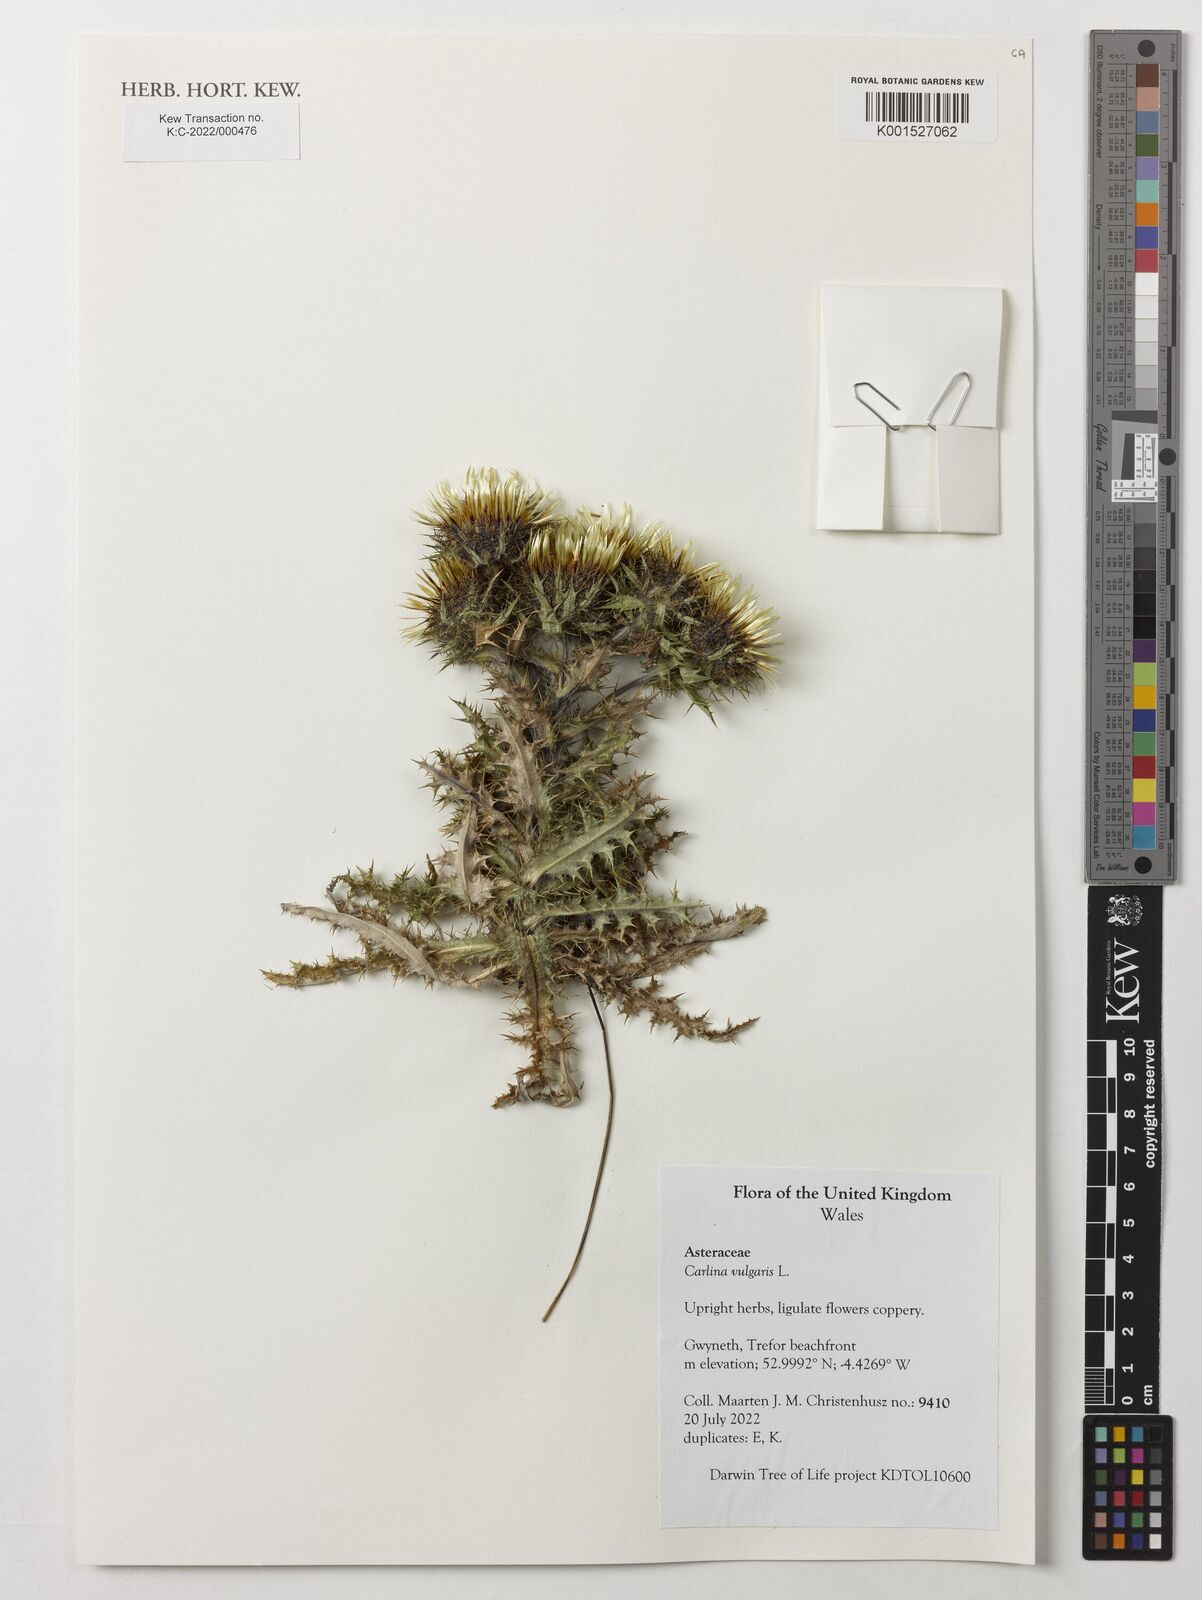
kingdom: Plantae
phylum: Tracheophyta
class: Magnoliopsida
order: Asterales
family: Asteraceae
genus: Carlina
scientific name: Carlina vulgaris
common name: Carline thistle
